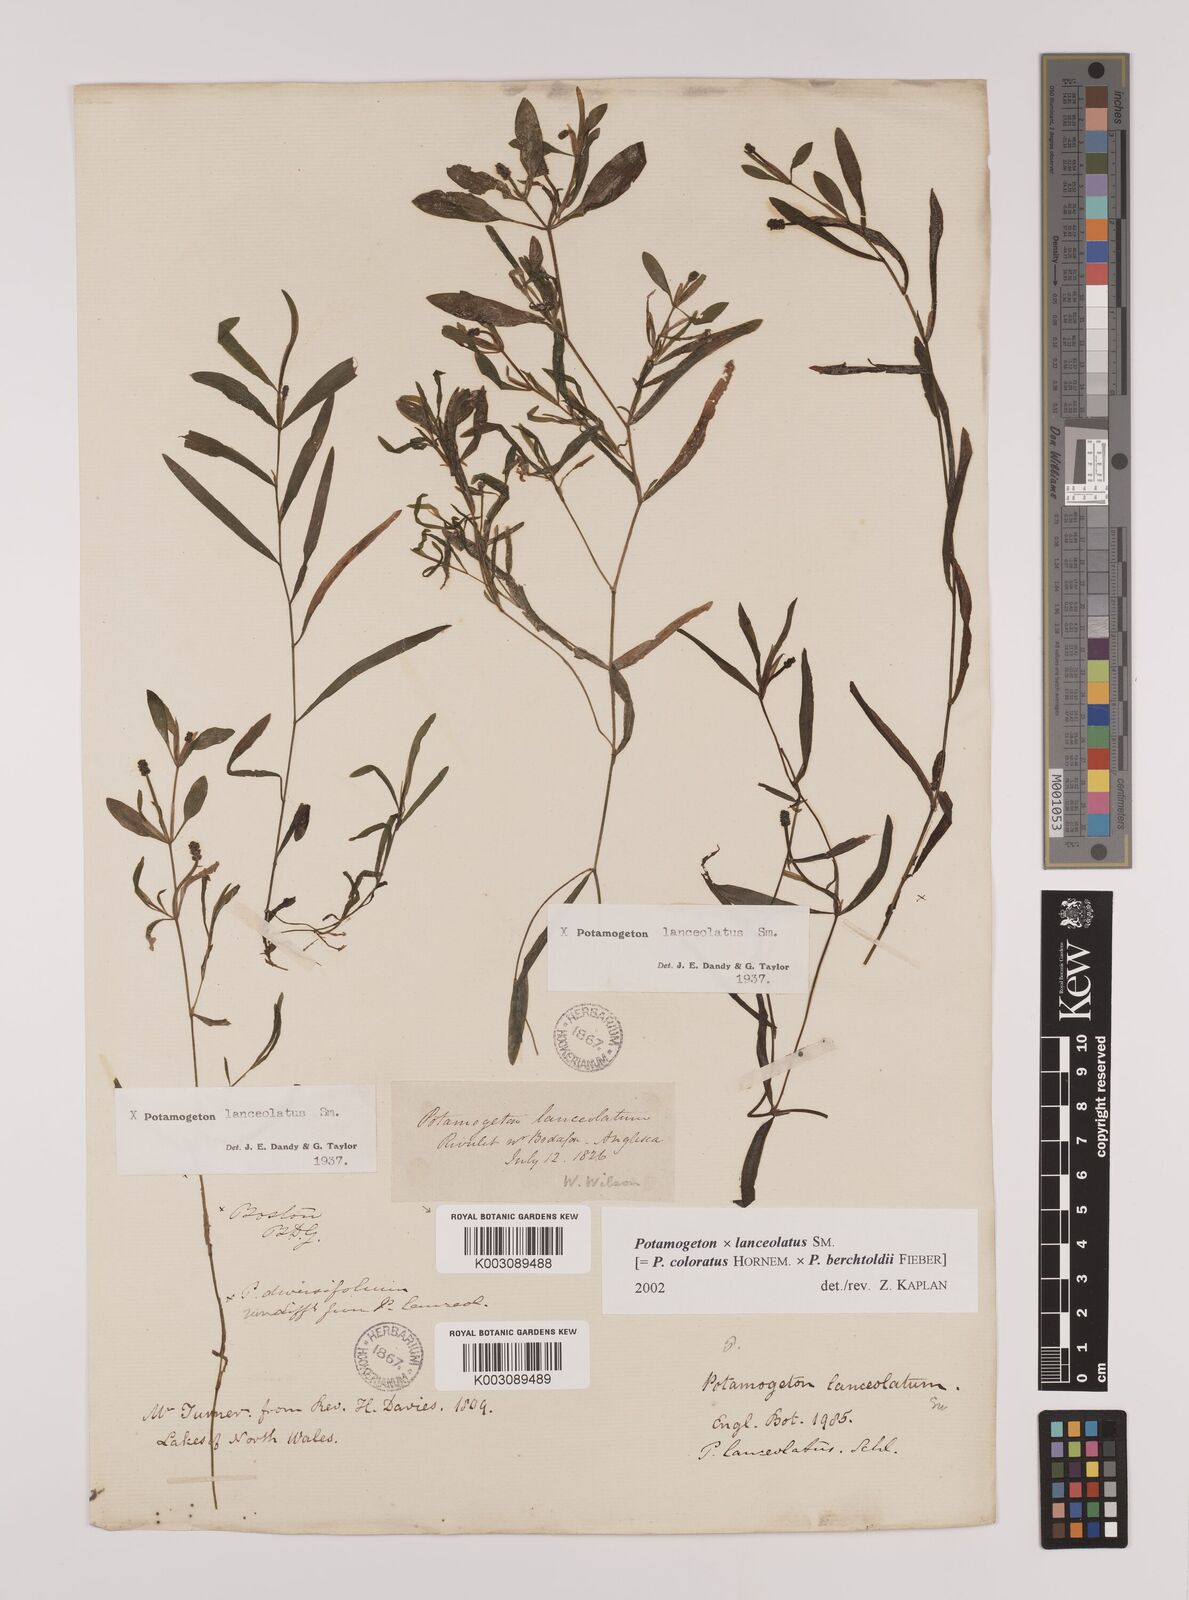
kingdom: Plantae
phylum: Tracheophyta
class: Liliopsida
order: Alismatales
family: Potamogetonaceae
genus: Potamogeton
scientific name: Potamogeton berchtoldii
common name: Small pondweed
